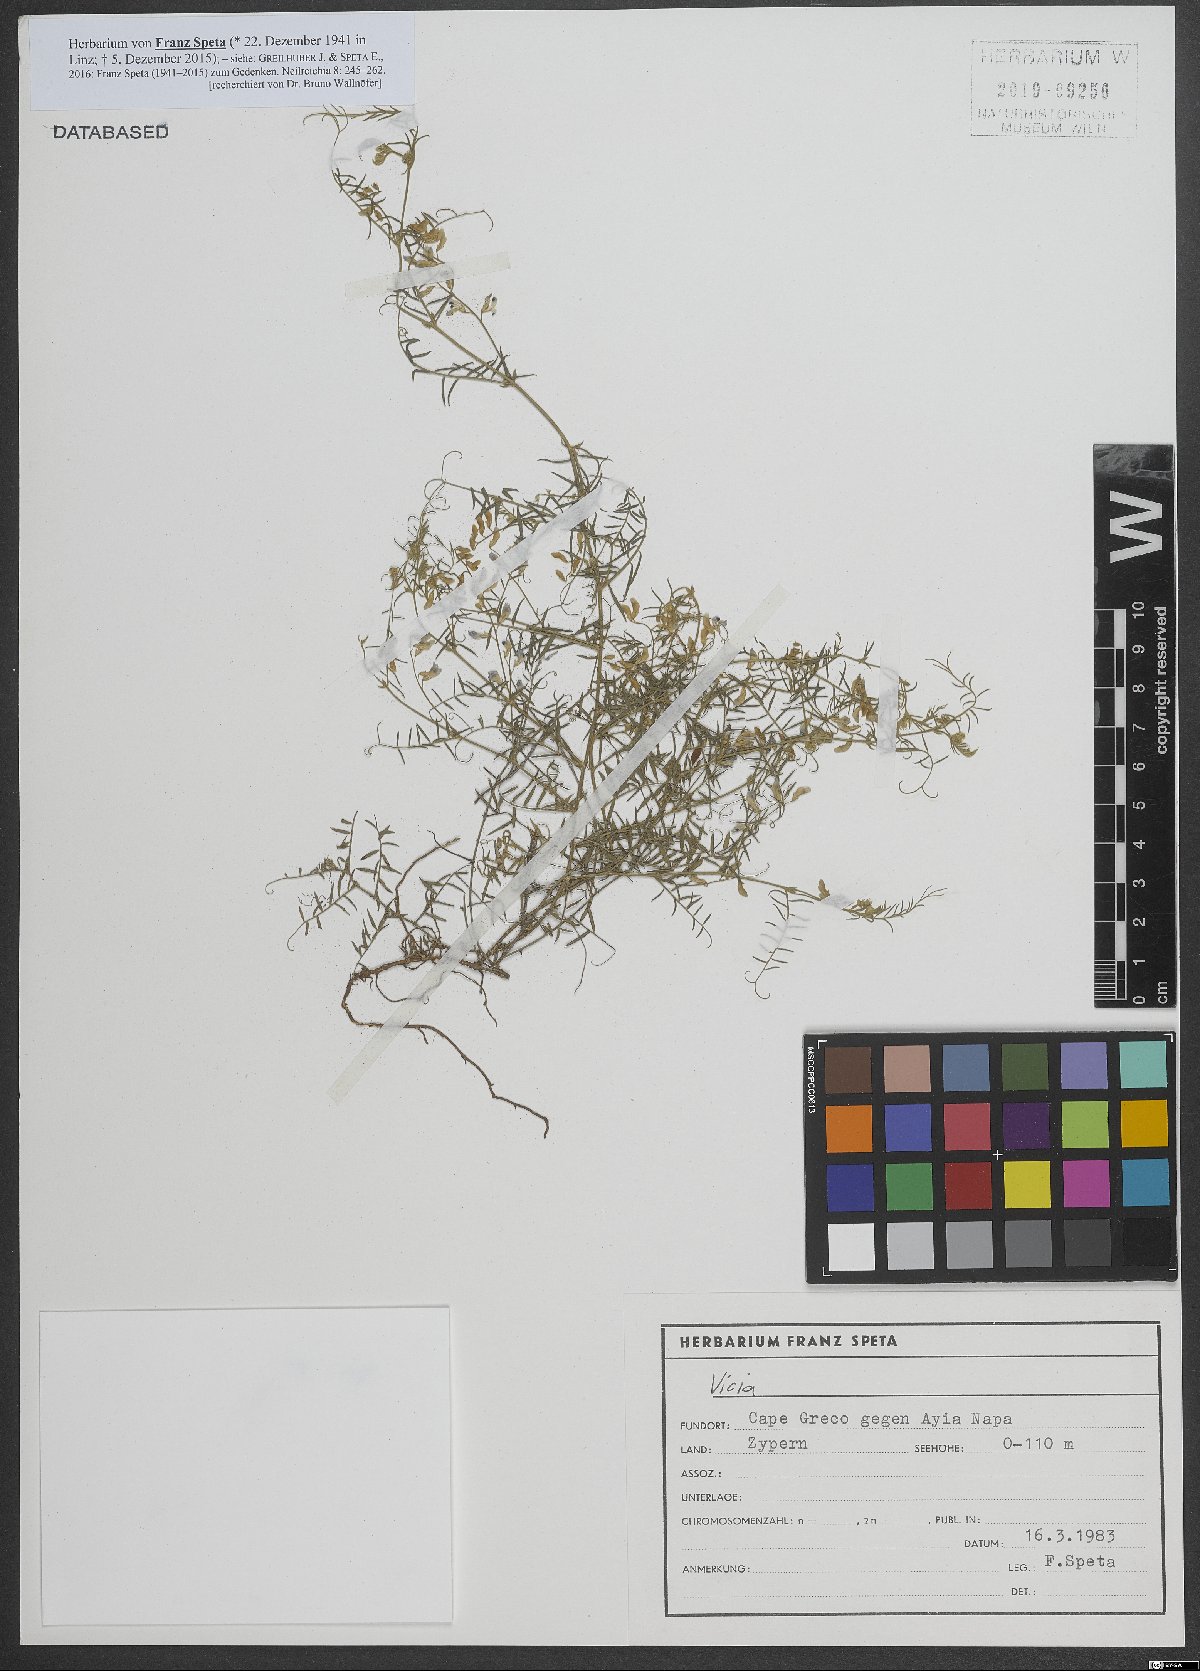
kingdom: Plantae
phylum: Tracheophyta
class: Magnoliopsida
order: Fabales
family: Fabaceae
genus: Vicia
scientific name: Vicia
